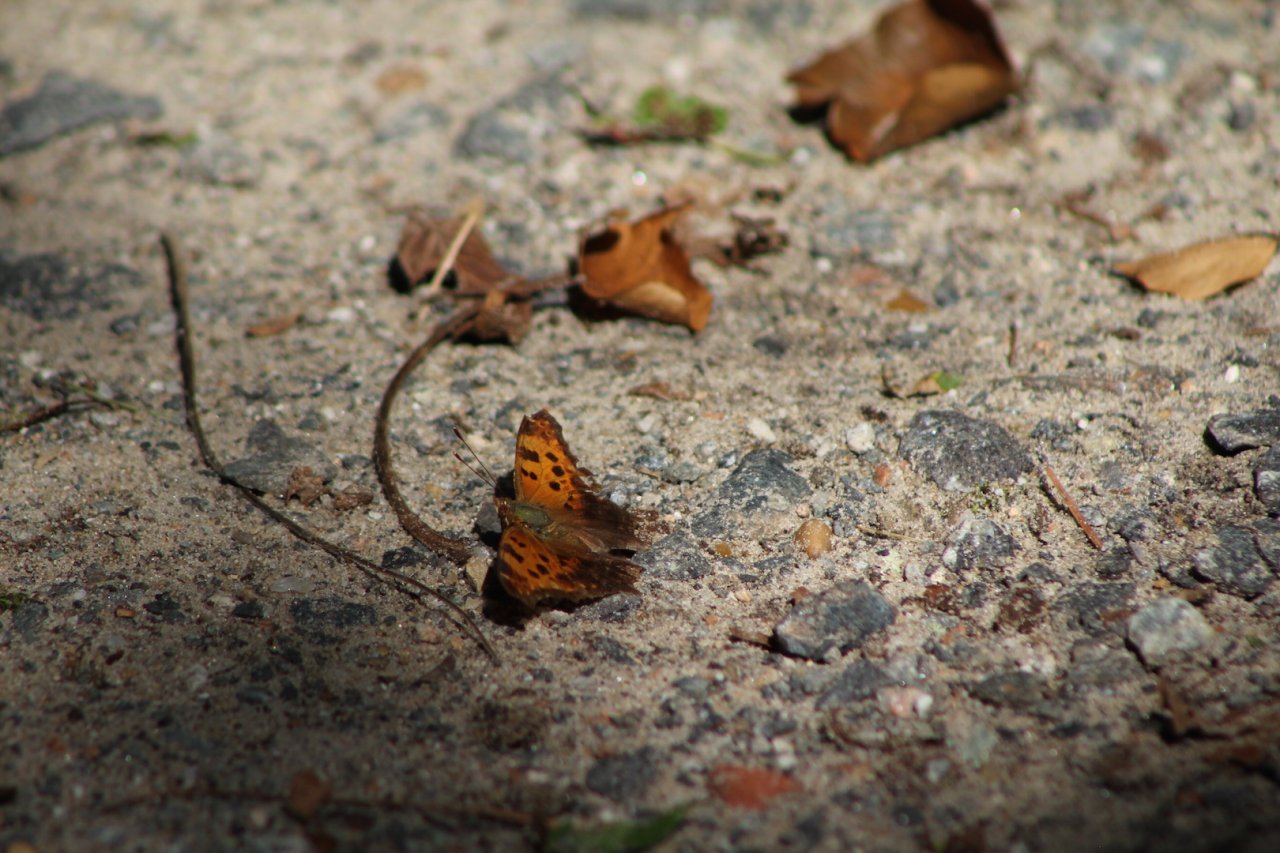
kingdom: Animalia
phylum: Arthropoda
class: Insecta
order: Lepidoptera
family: Nymphalidae
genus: Polygonia
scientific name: Polygonia comma
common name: Eastern Comma
